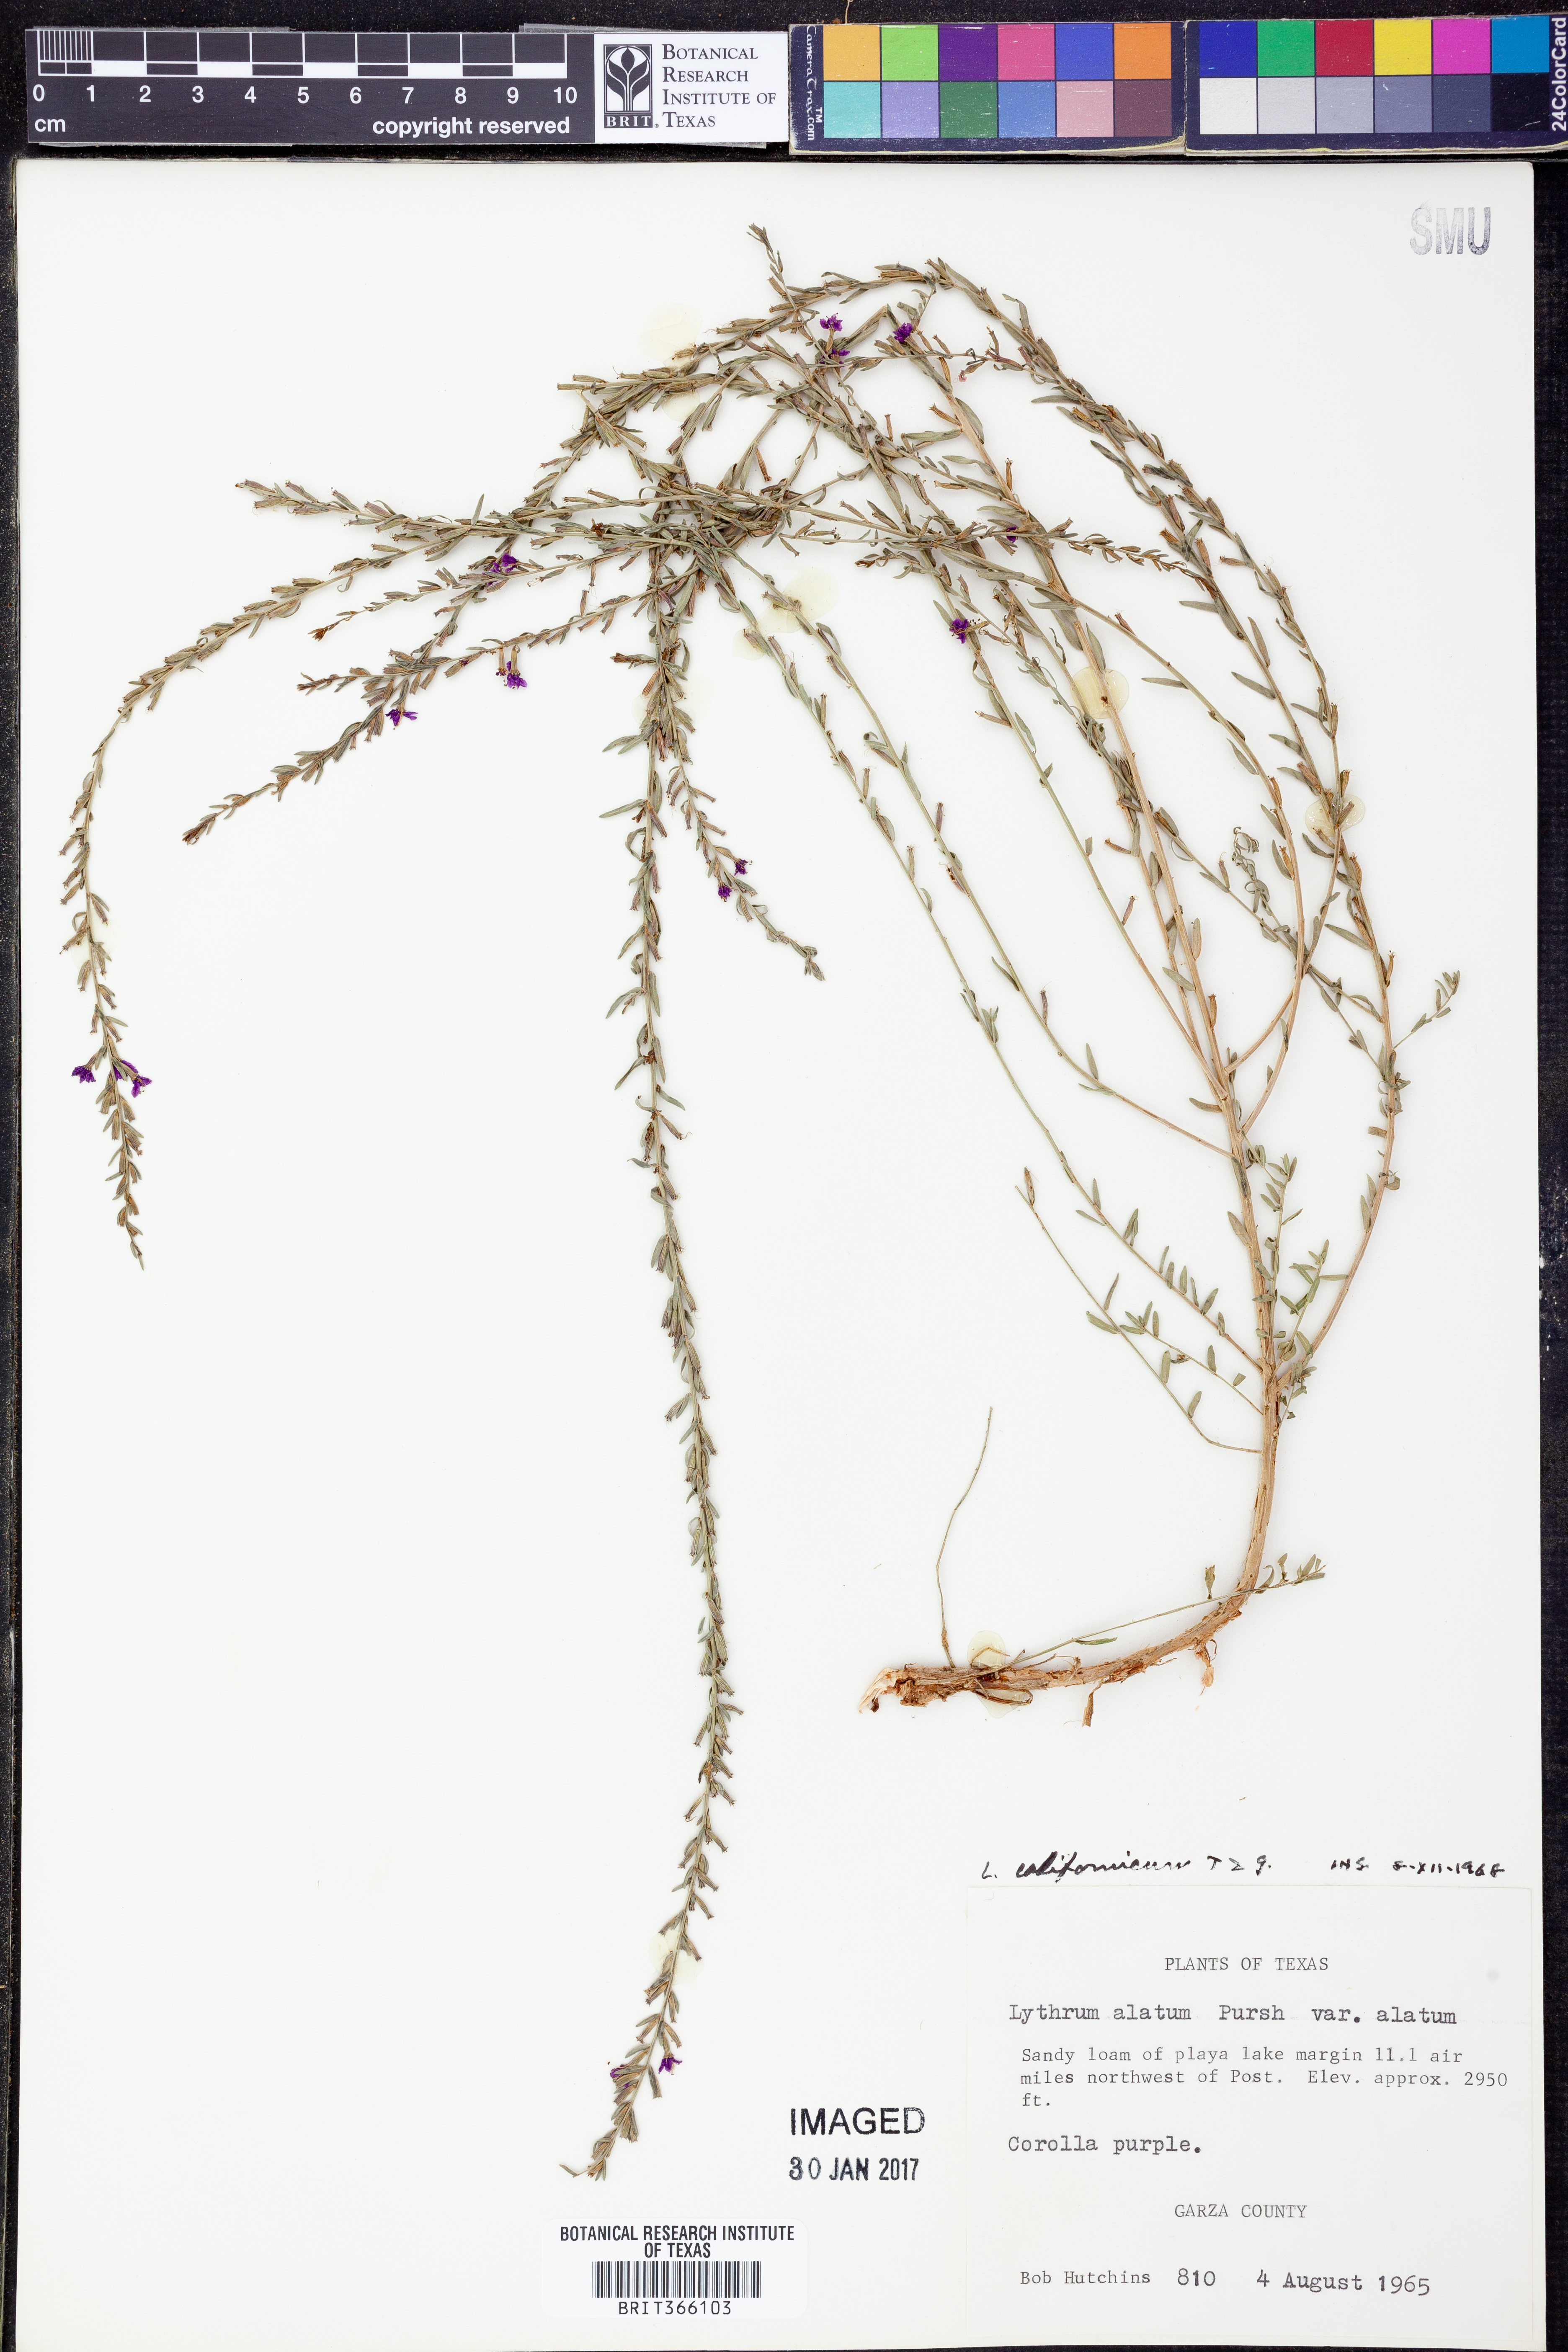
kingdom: Plantae
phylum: Tracheophyta
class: Magnoliopsida
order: Myrtales
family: Lythraceae
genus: Lythrum
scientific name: Lythrum californicum
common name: California loosestrife
